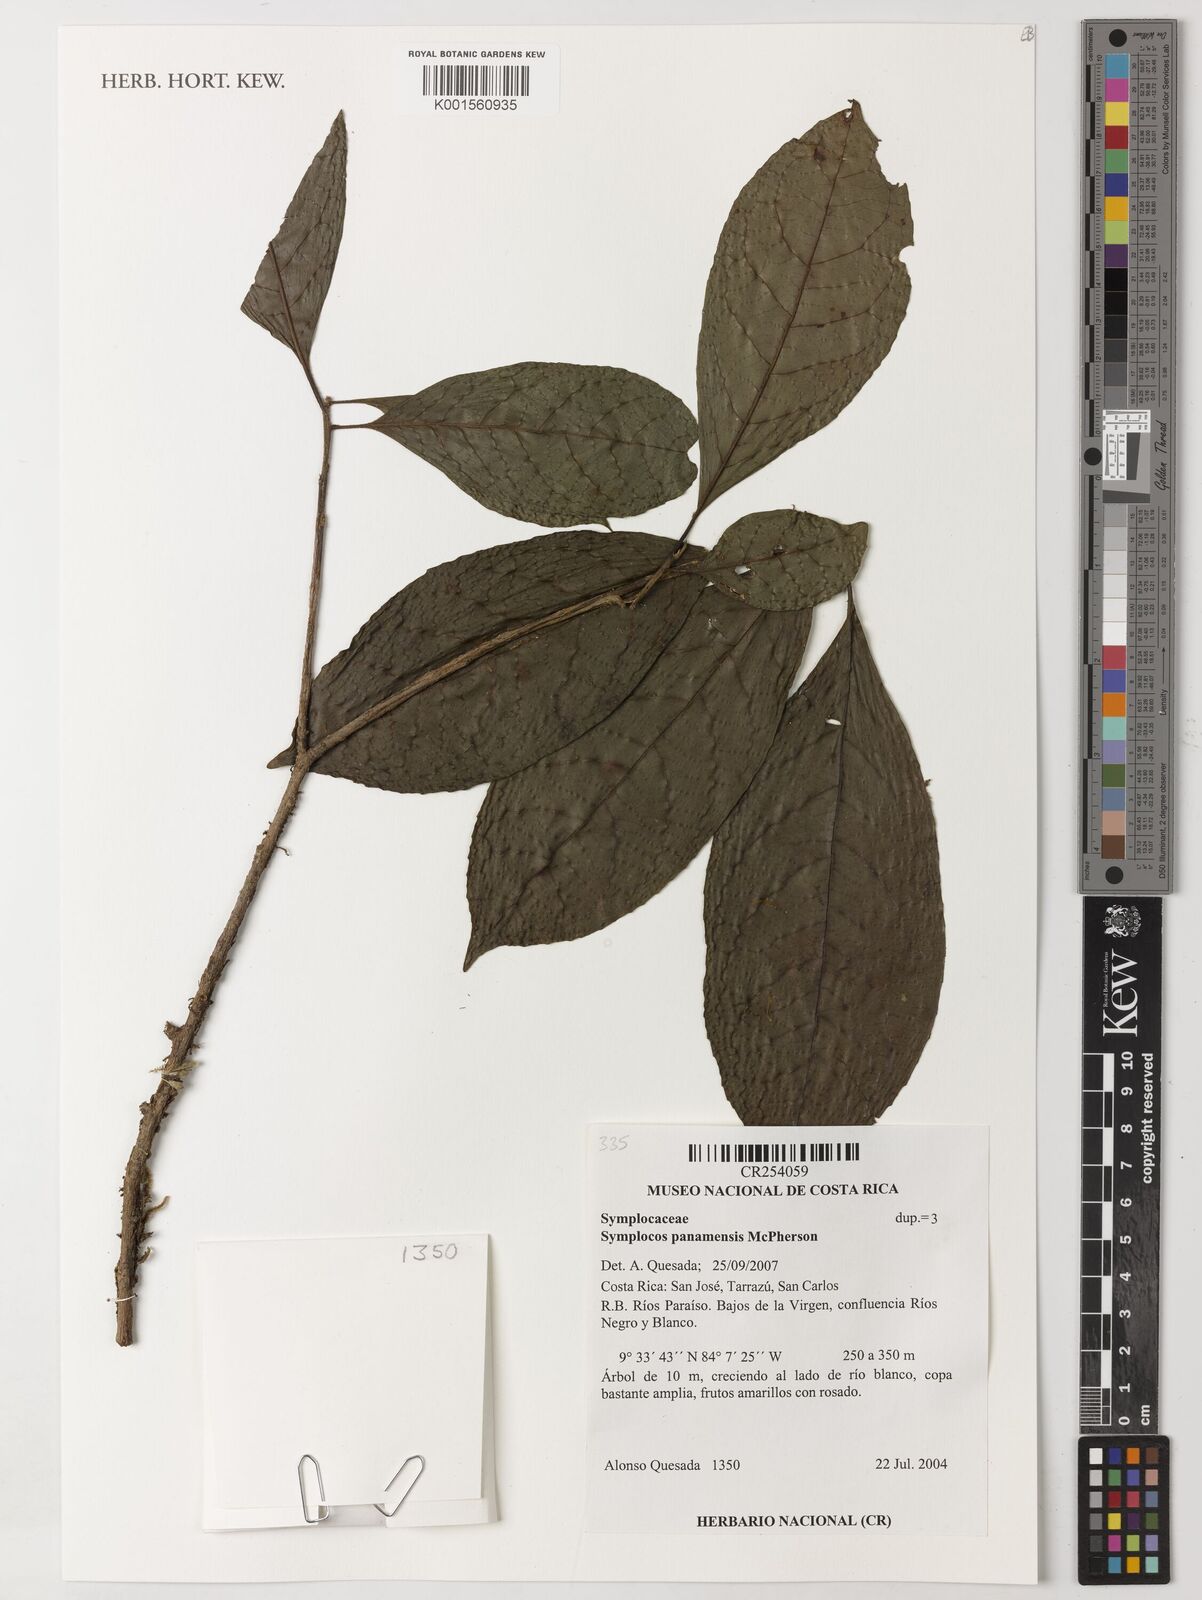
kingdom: Plantae
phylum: Tracheophyta
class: Magnoliopsida
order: Ericales
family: Symplocaceae
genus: Symplocos
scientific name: Symplocos panamensis
